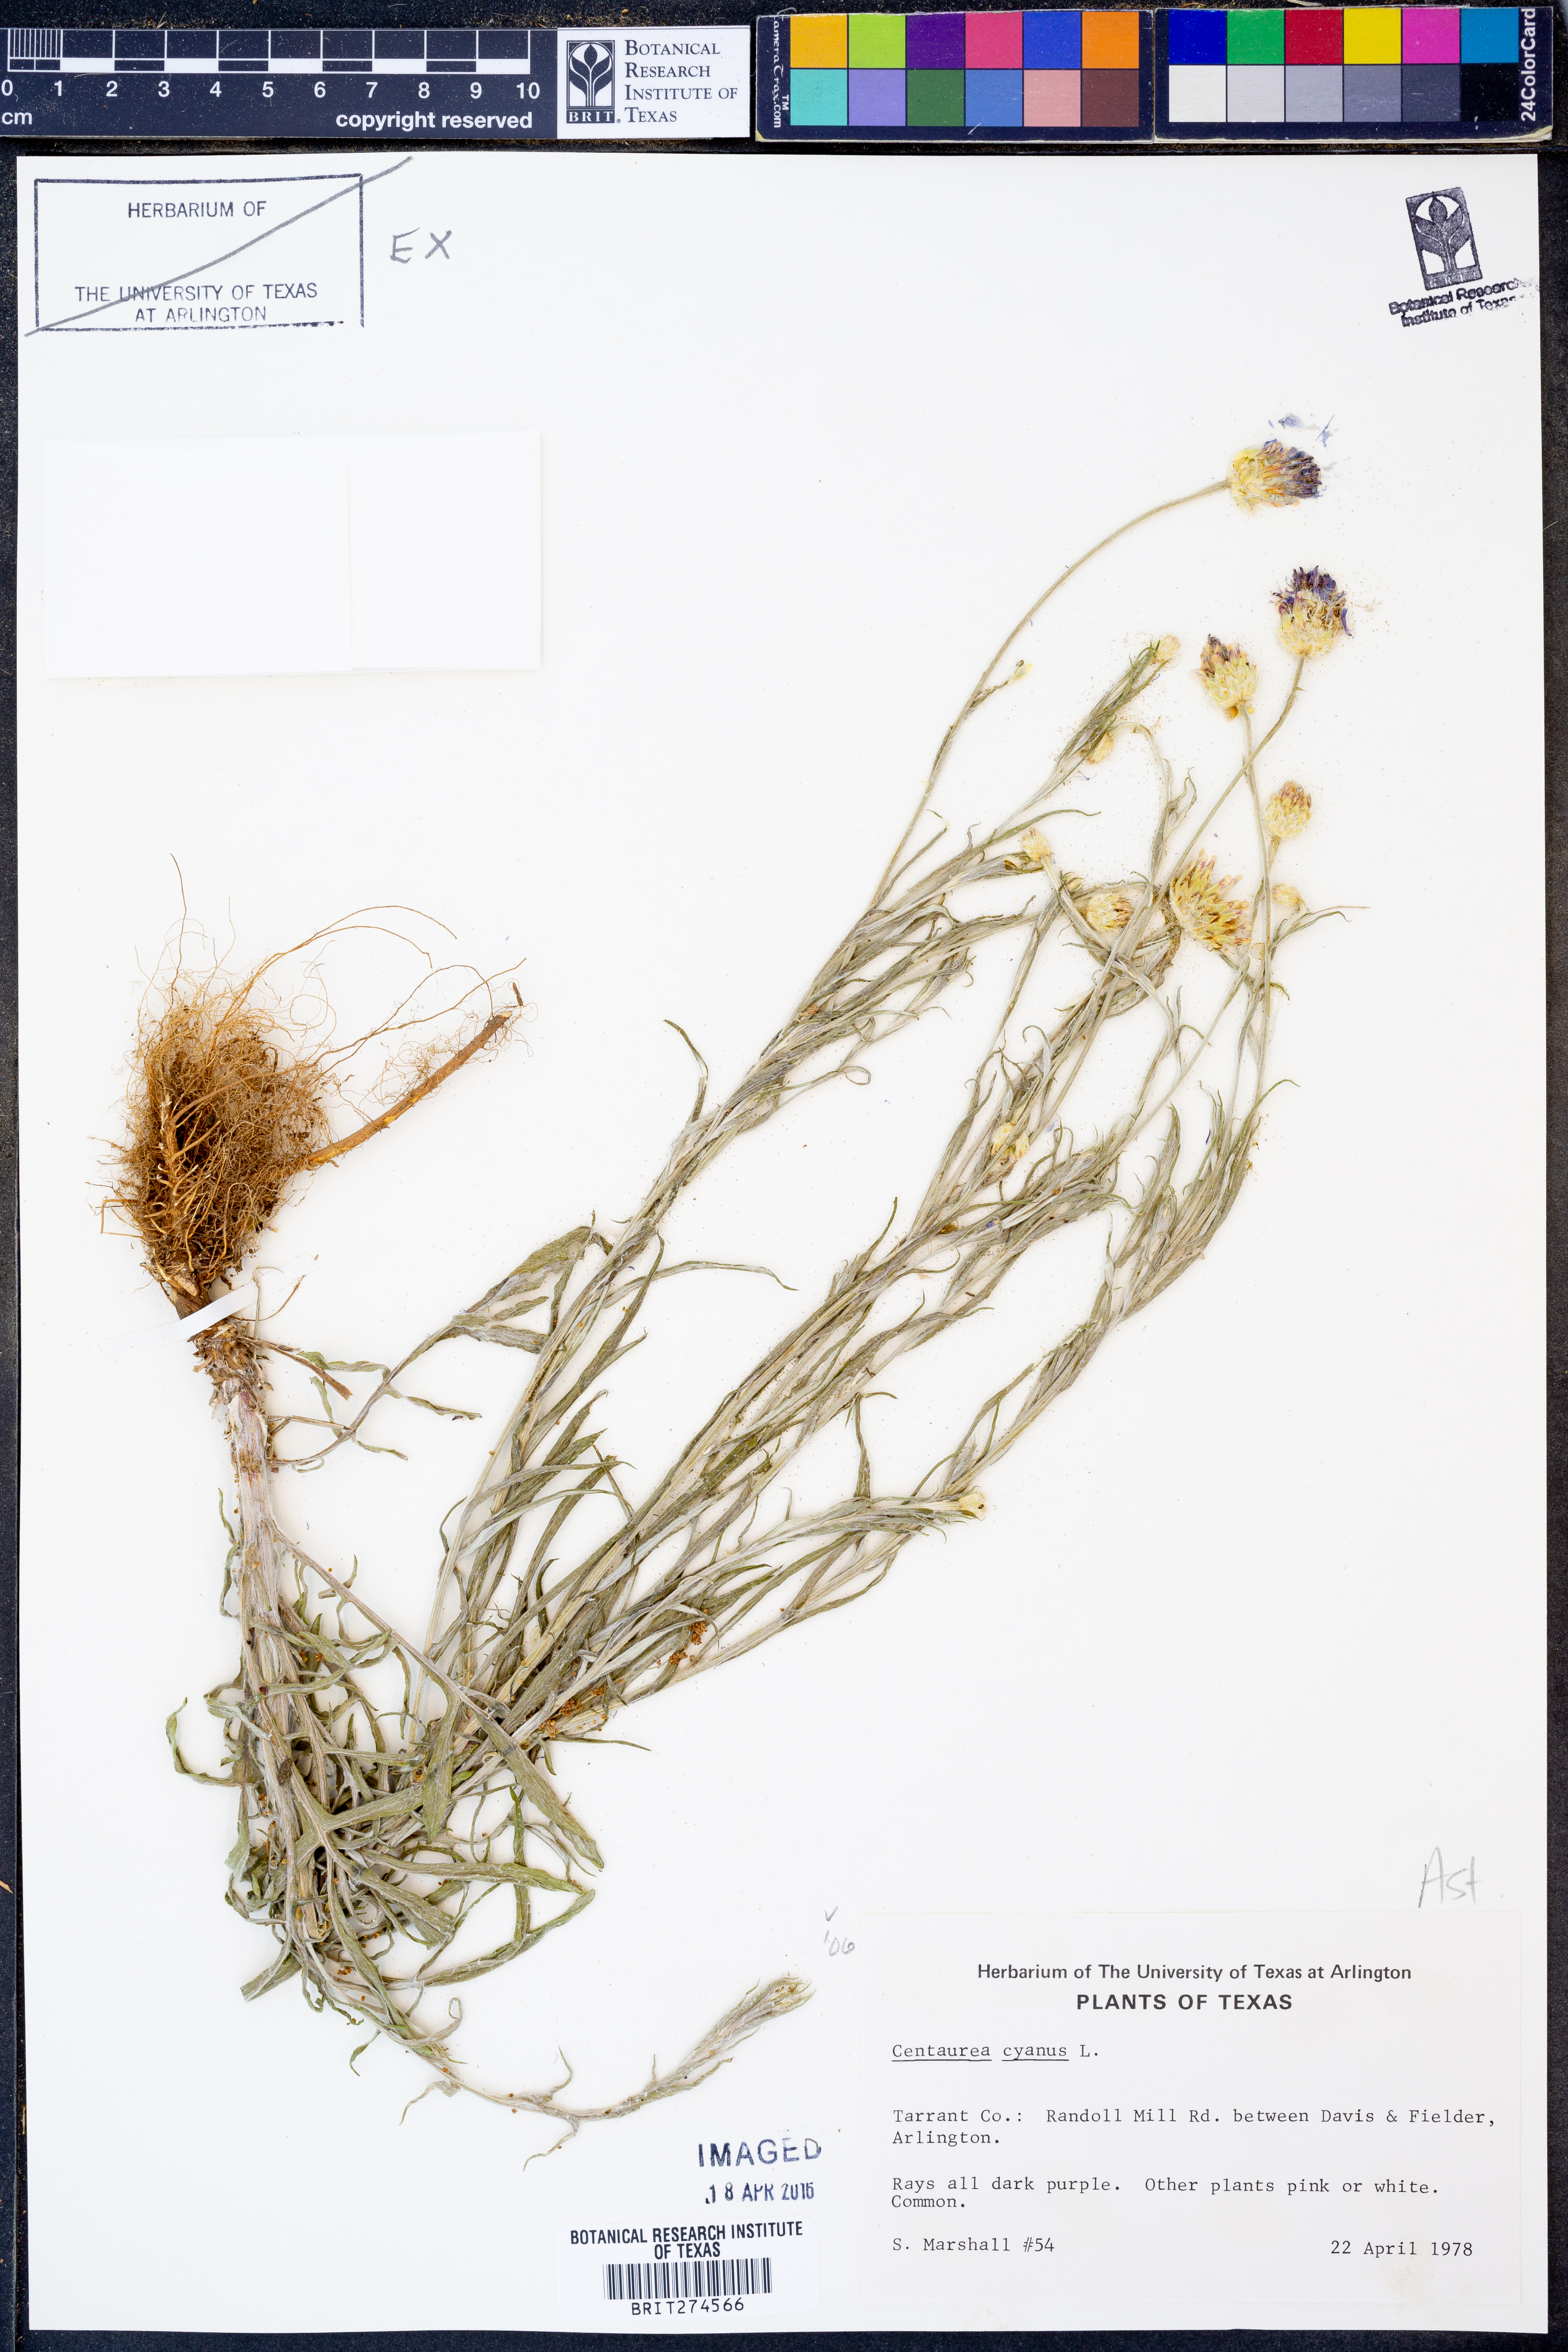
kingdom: Plantae
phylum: Tracheophyta
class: Magnoliopsida
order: Asterales
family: Asteraceae
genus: Centaurea
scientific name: Centaurea cyanus
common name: Cornflower
